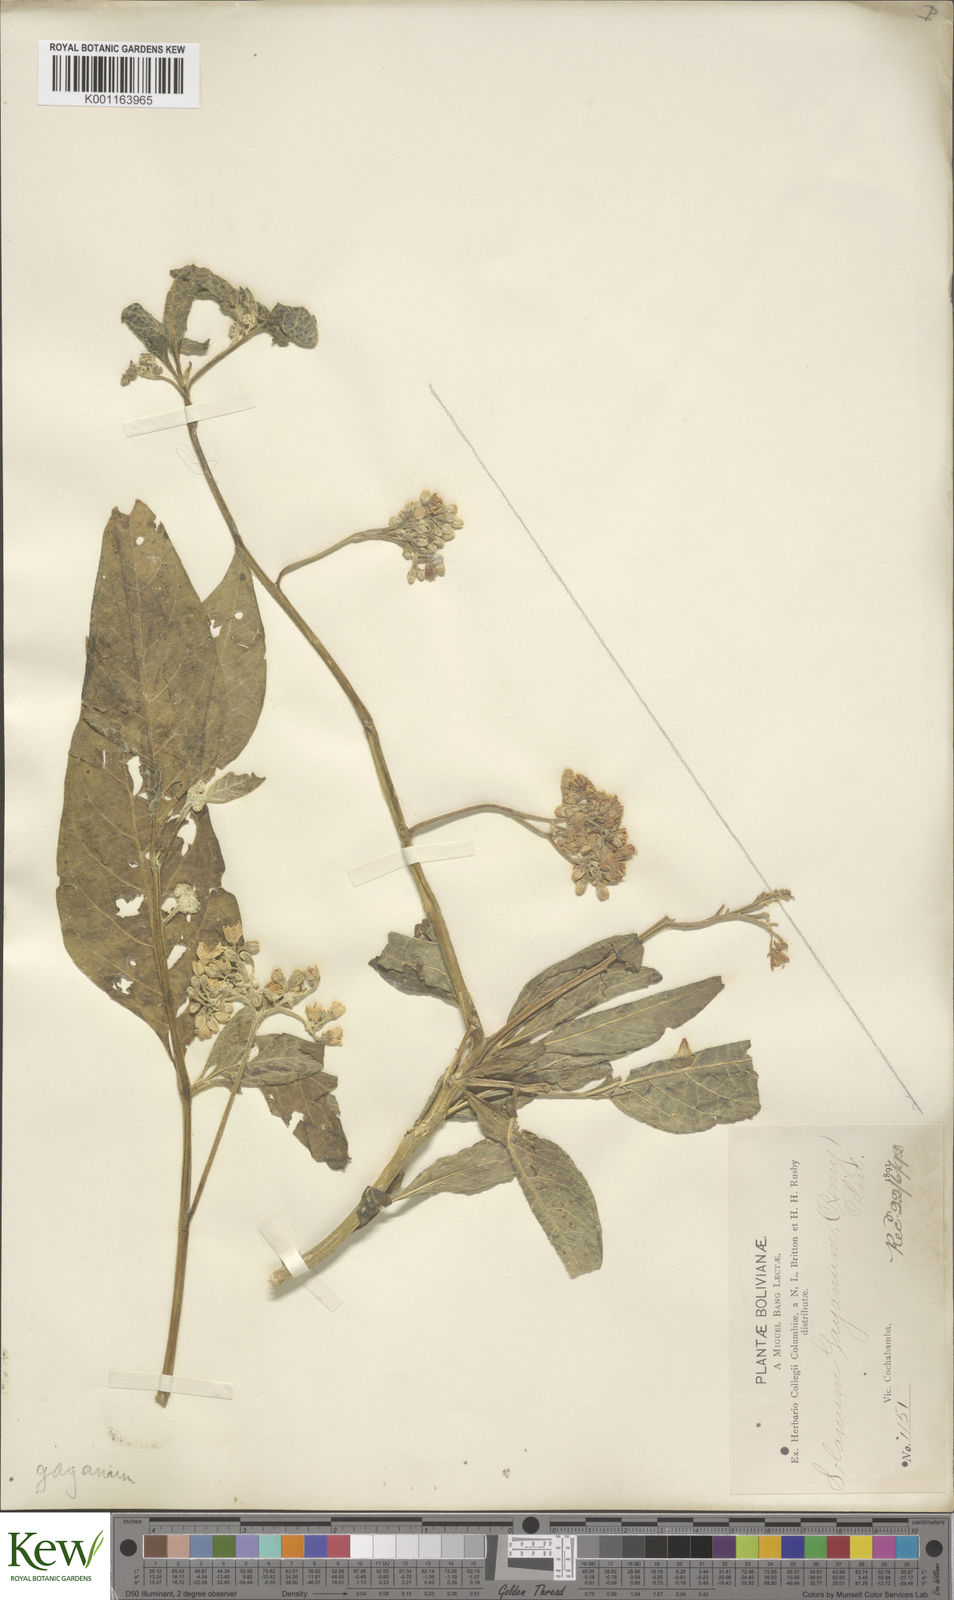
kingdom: Plantae
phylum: Tracheophyta
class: Magnoliopsida
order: Solanales
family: Solanaceae
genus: Solanum
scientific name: Solanum cochabambense
